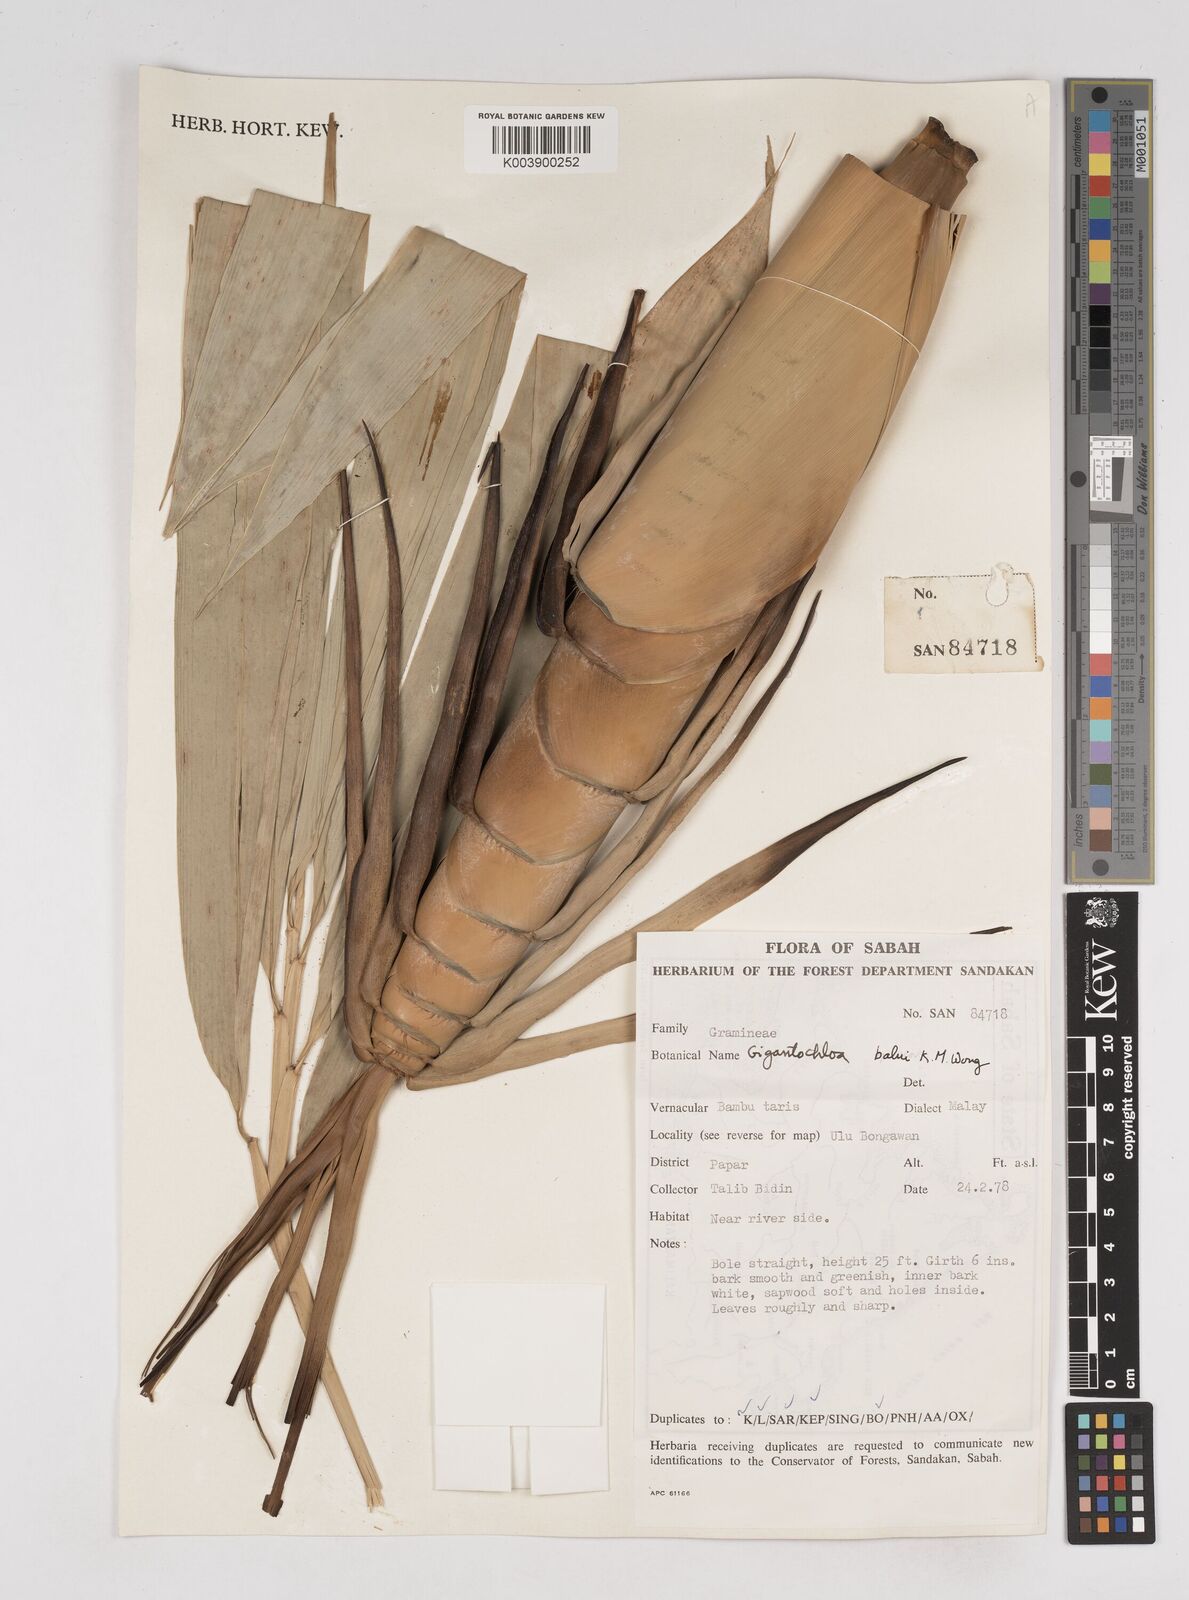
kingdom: Plantae
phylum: Tracheophyta
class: Liliopsida
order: Poales
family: Poaceae
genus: Gigantochloa
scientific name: Gigantochloa
